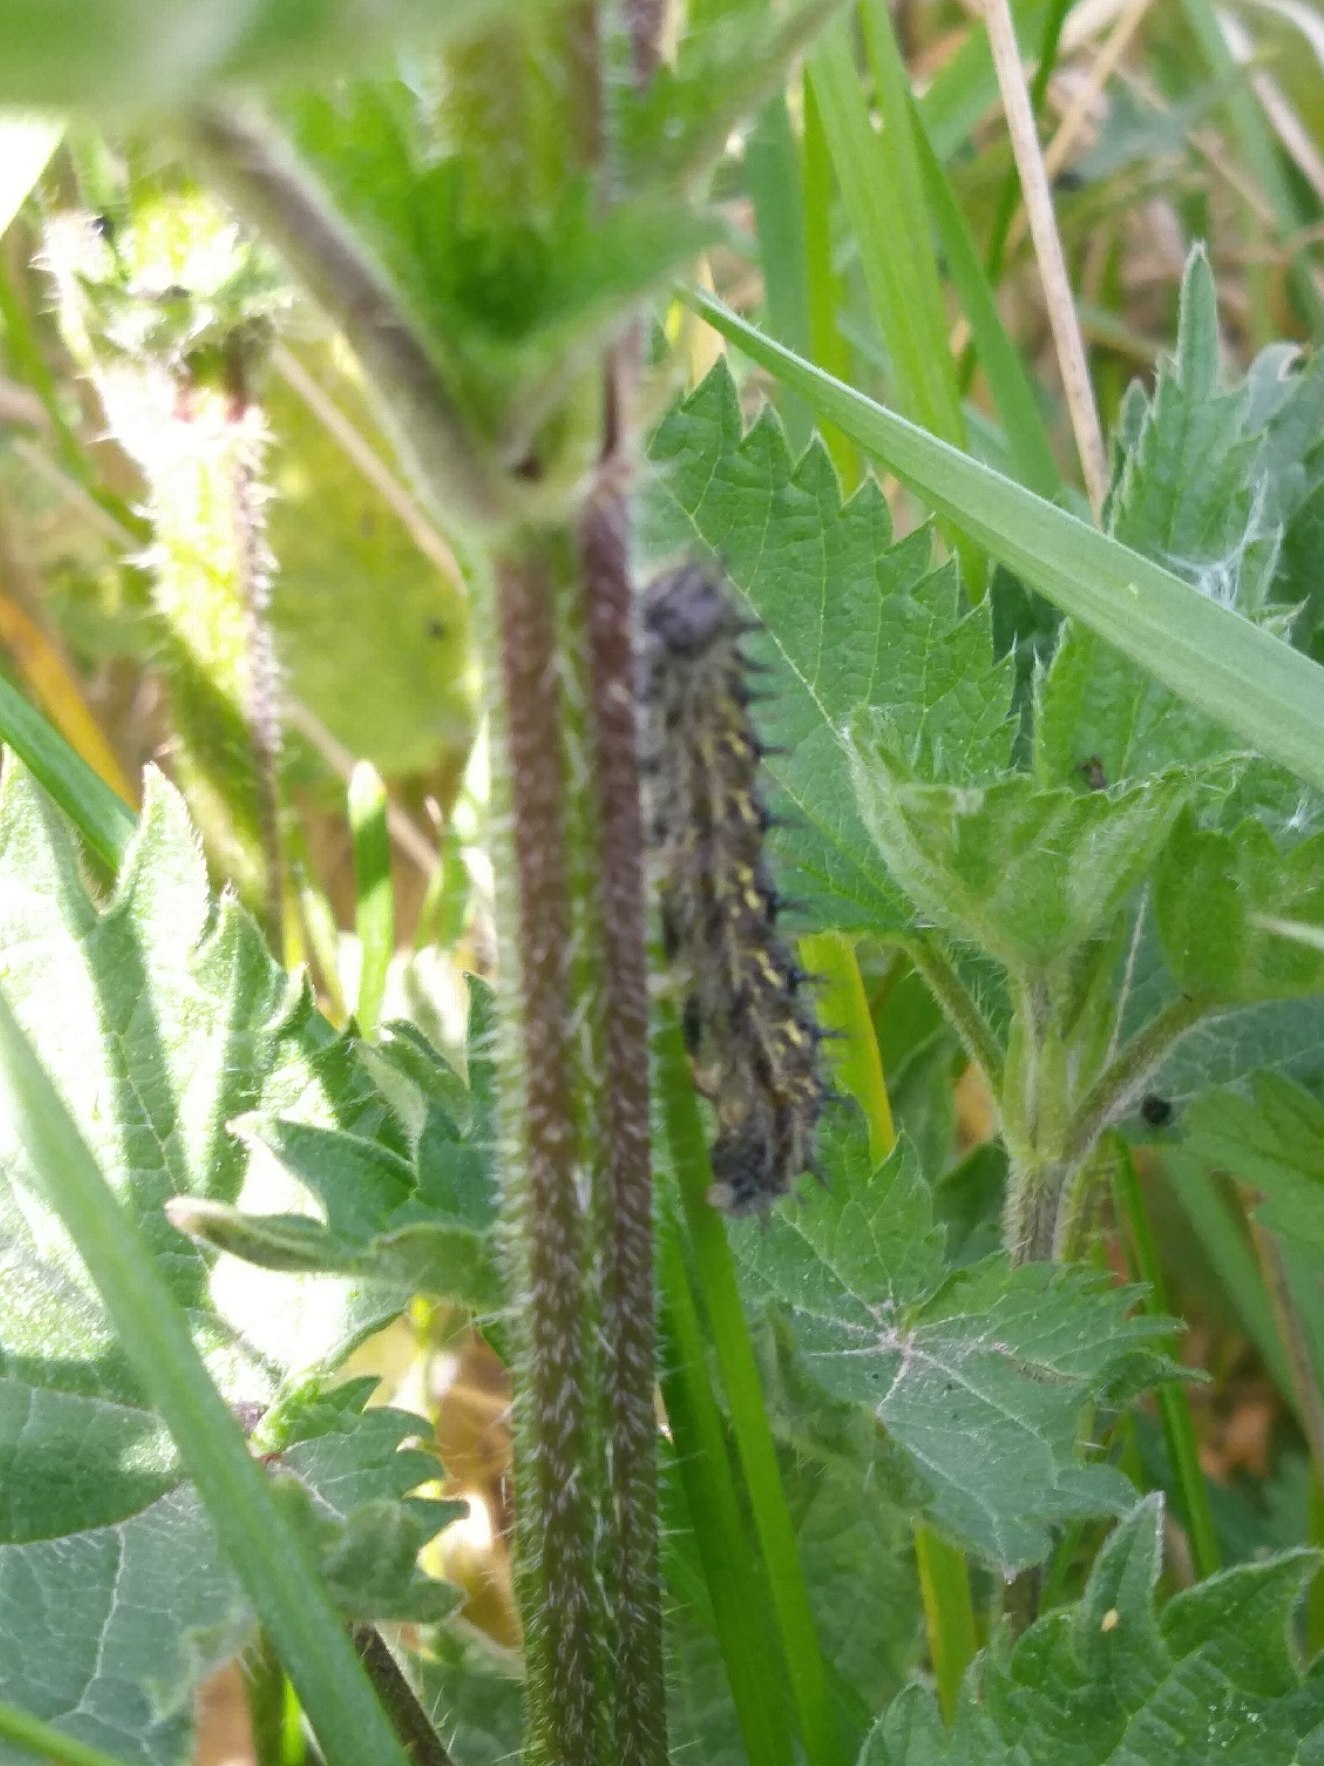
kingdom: Animalia
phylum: Arthropoda
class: Insecta
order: Lepidoptera
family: Nymphalidae
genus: Aglais
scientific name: Aglais urticae
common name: Nældens takvinge
